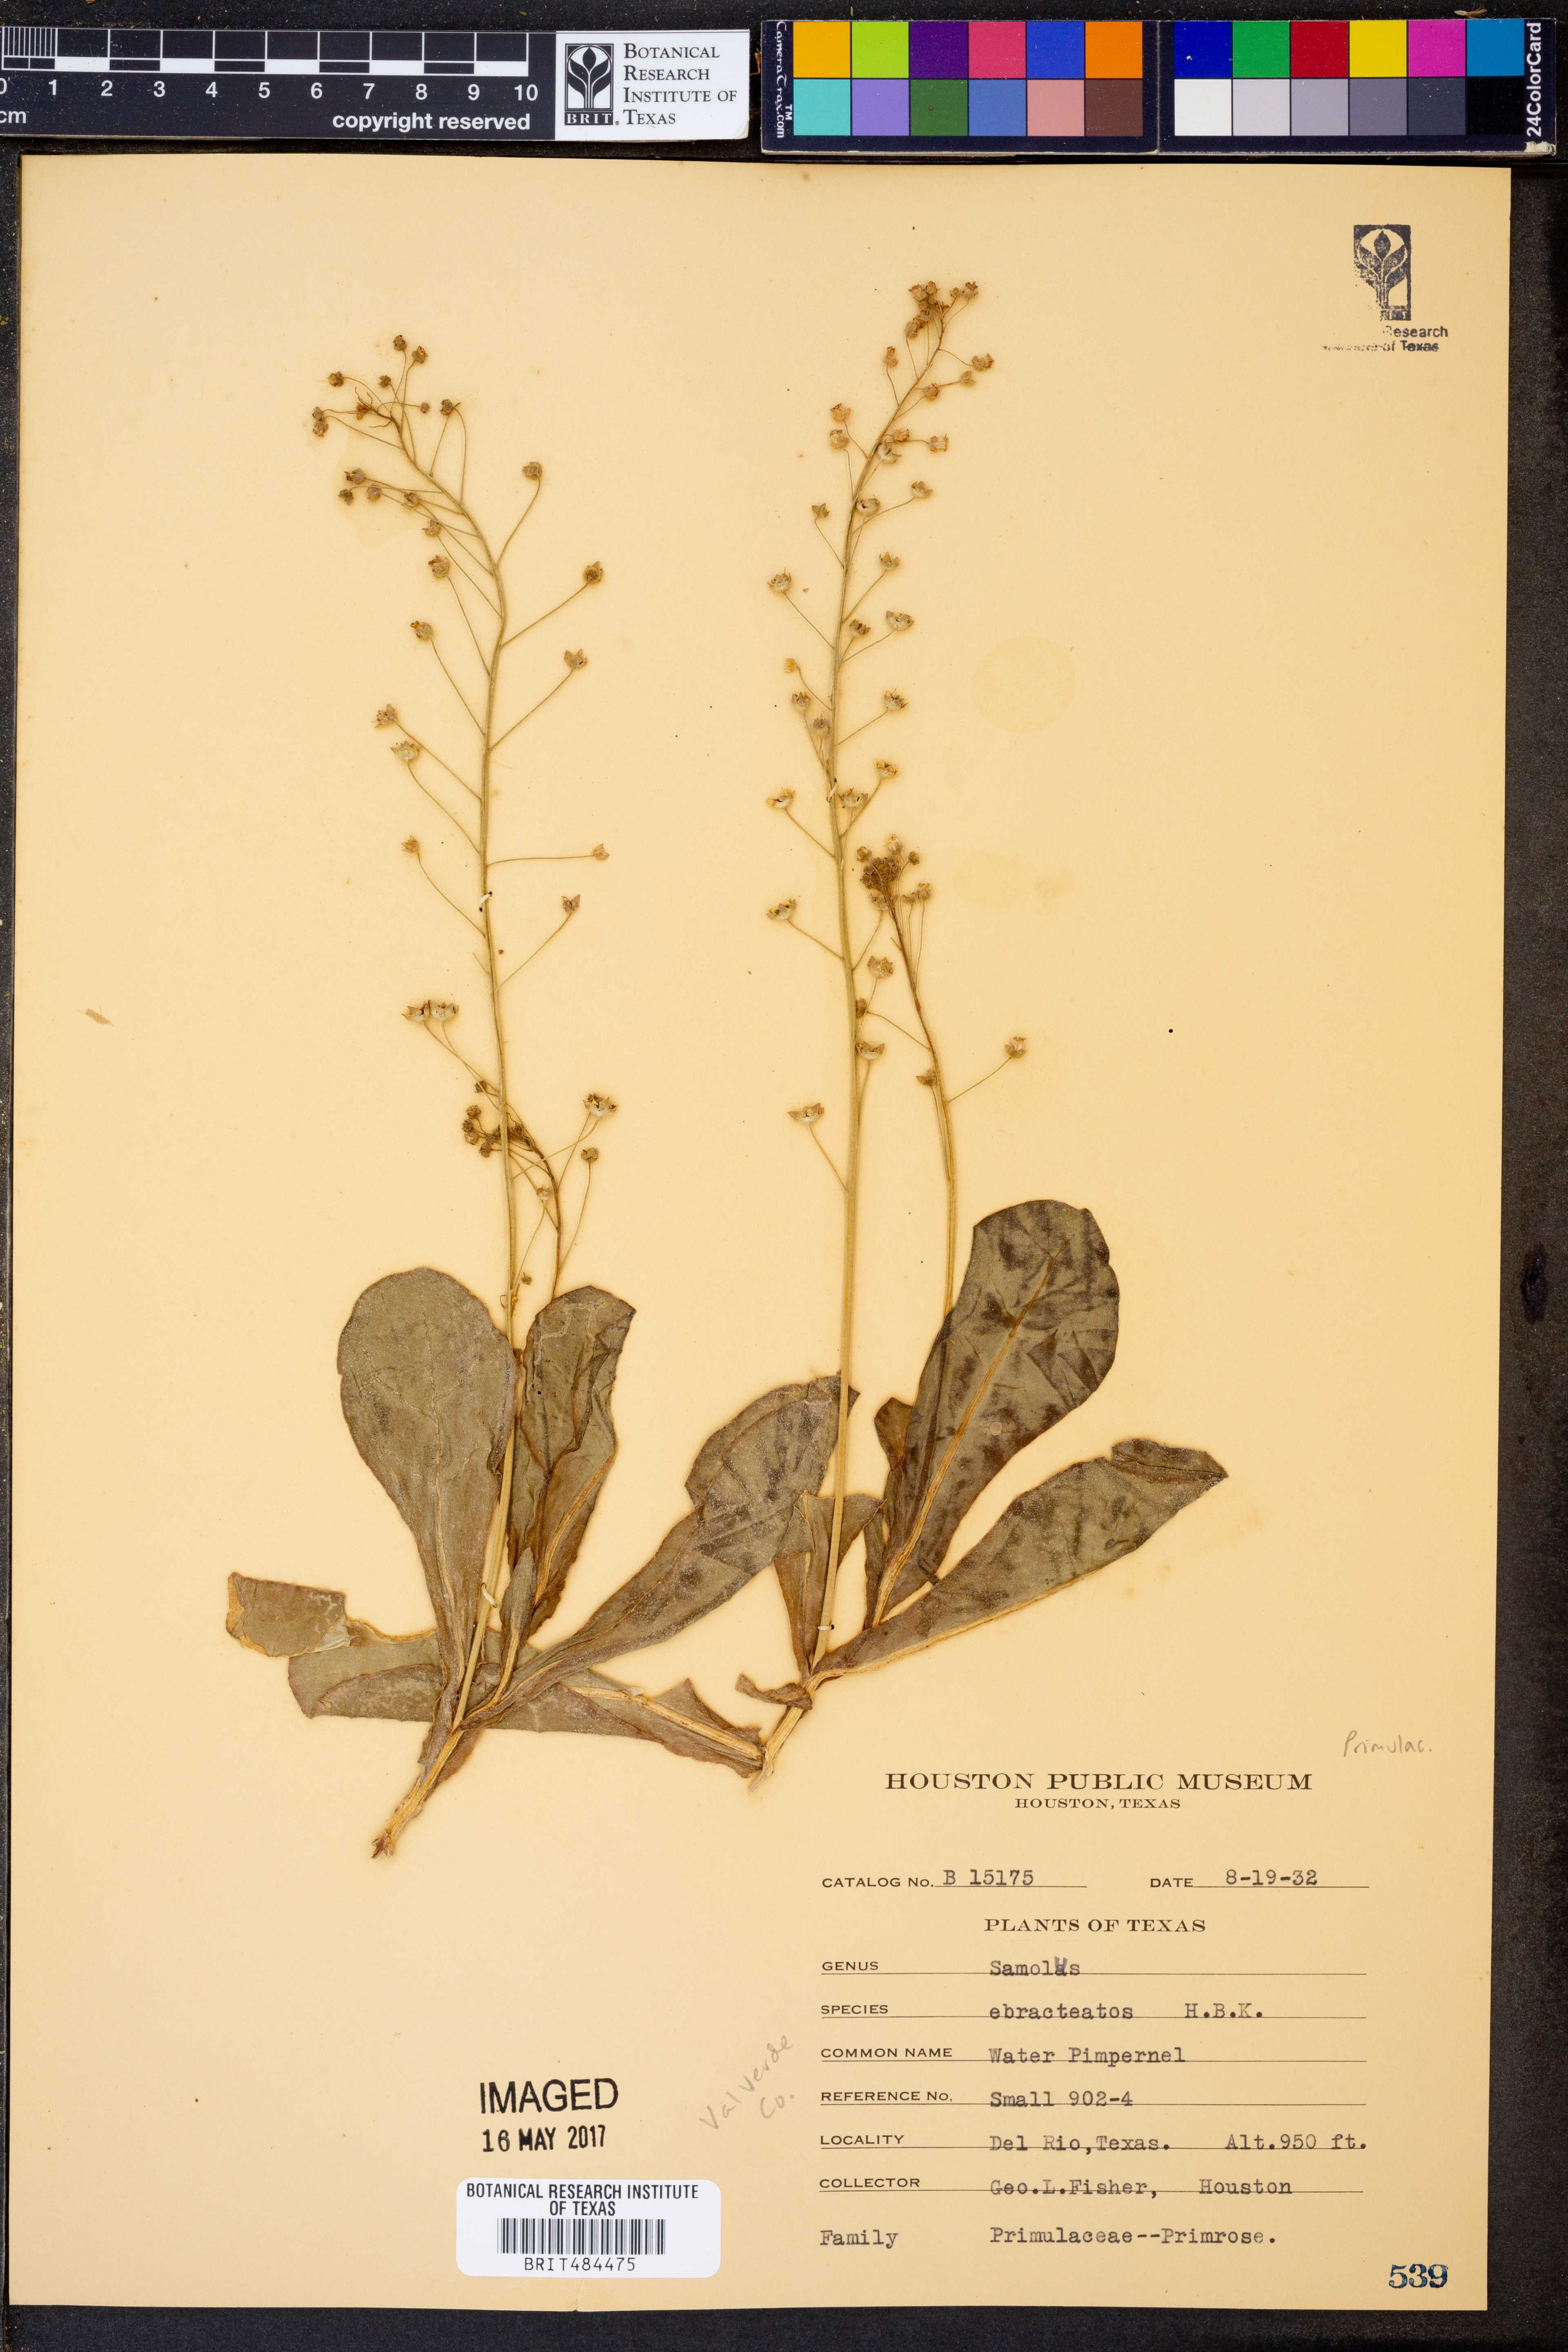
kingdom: Plantae
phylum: Tracheophyta
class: Magnoliopsida
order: Ericales
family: Primulaceae
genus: Samolus
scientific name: Samolus ebracteatus
